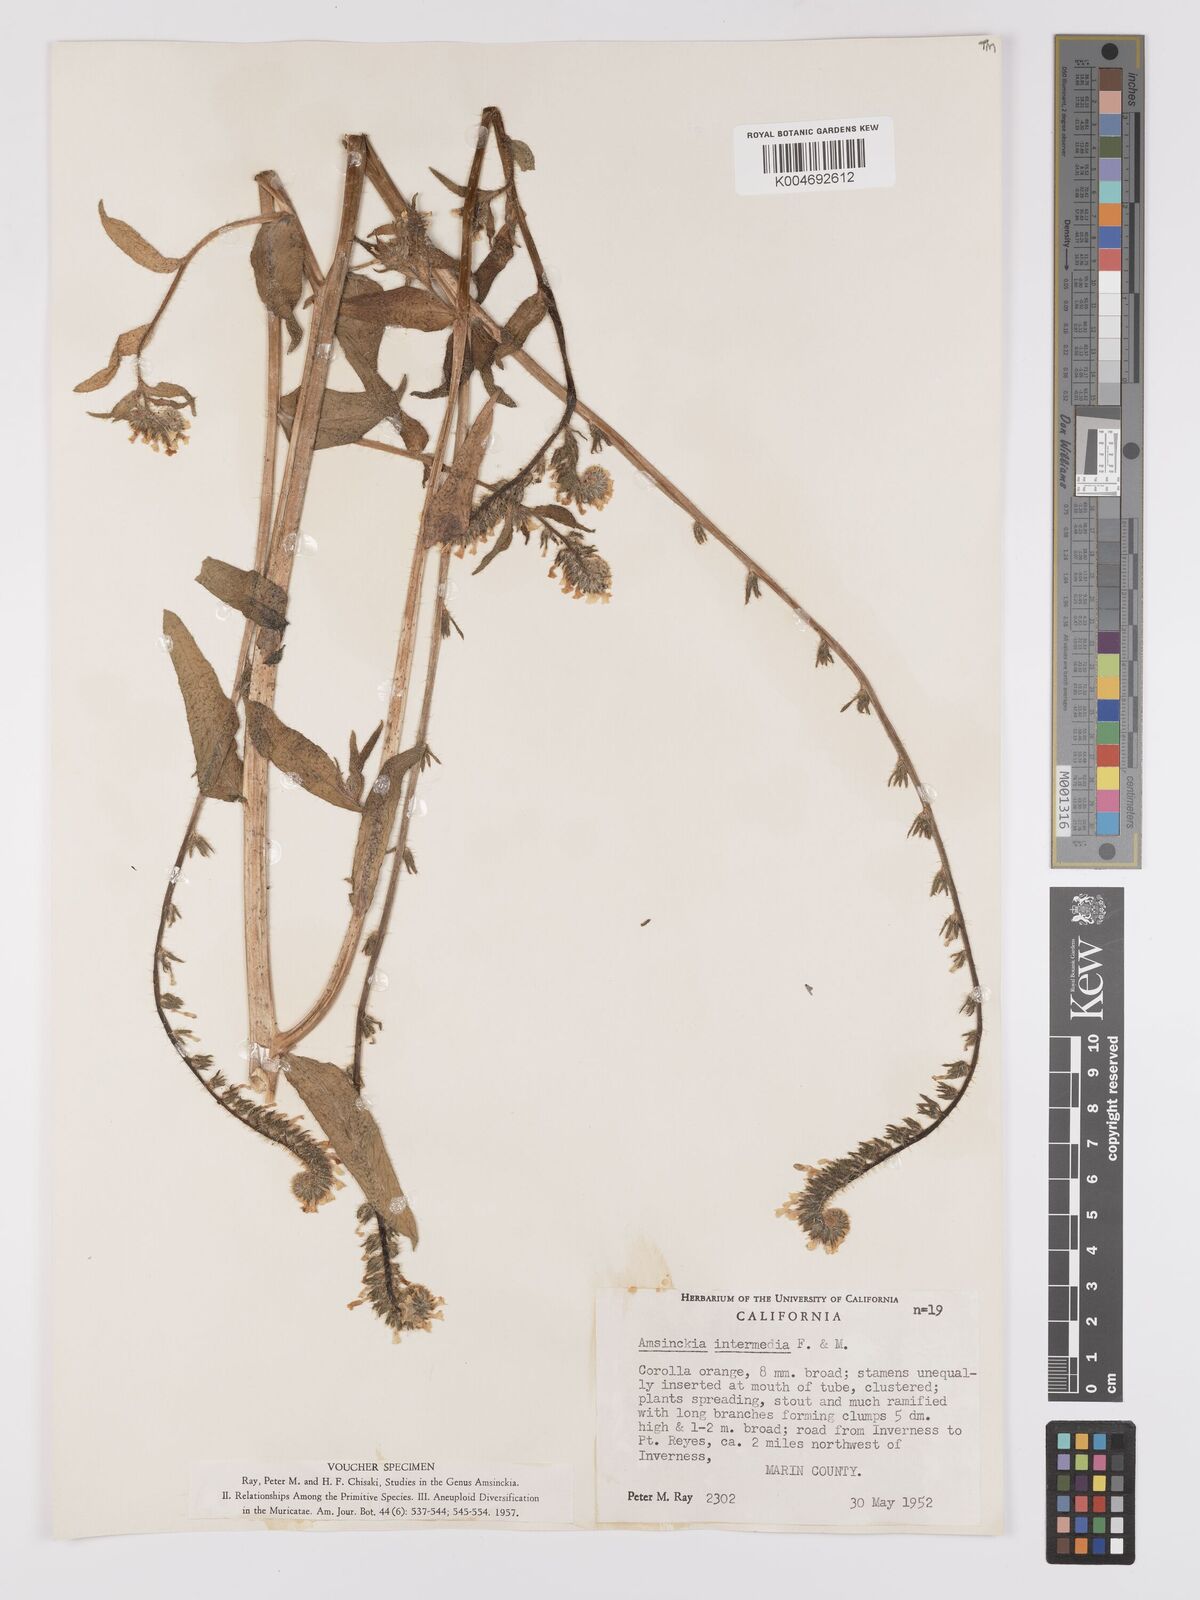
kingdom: Plantae
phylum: Tracheophyta
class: Magnoliopsida
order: Boraginales
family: Boraginaceae
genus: Amsinckia
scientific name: Amsinckia menziesii
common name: Menzies' fiddleneck
